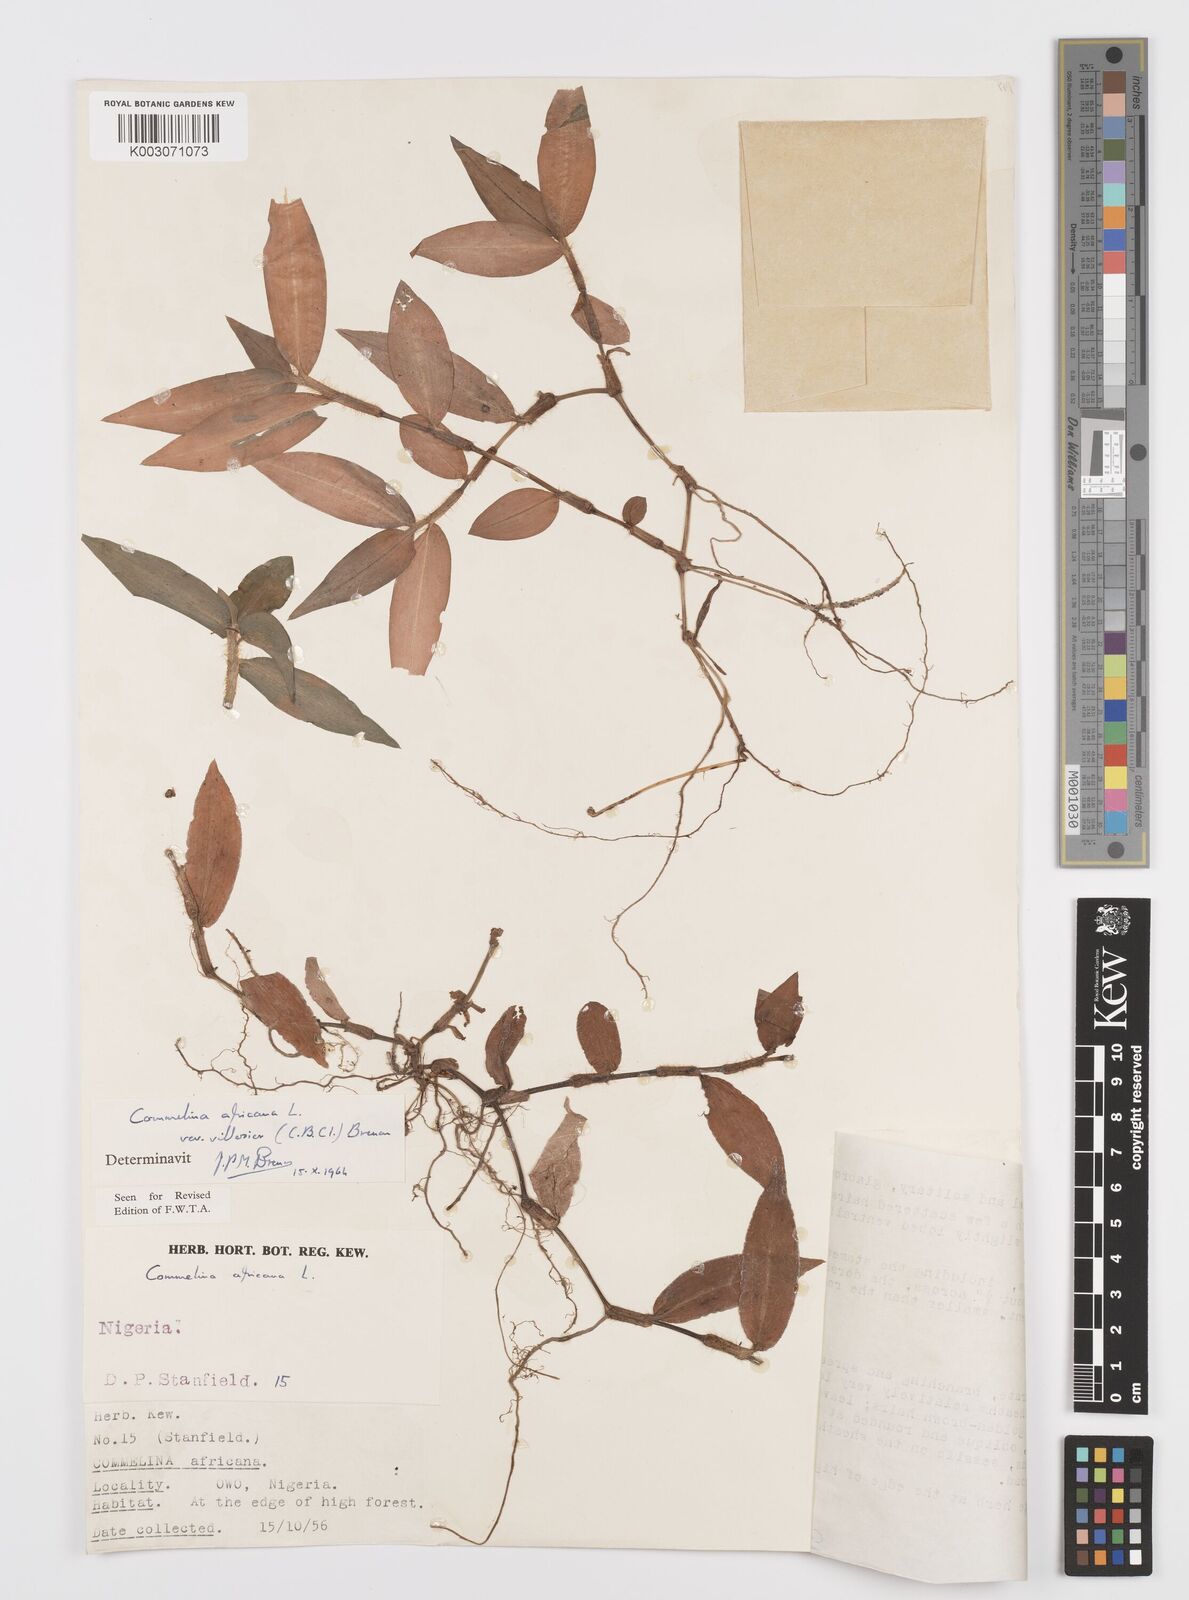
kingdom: Plantae
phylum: Tracheophyta
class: Liliopsida
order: Commelinales
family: Commelinaceae
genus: Commelina
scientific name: Commelina africana
